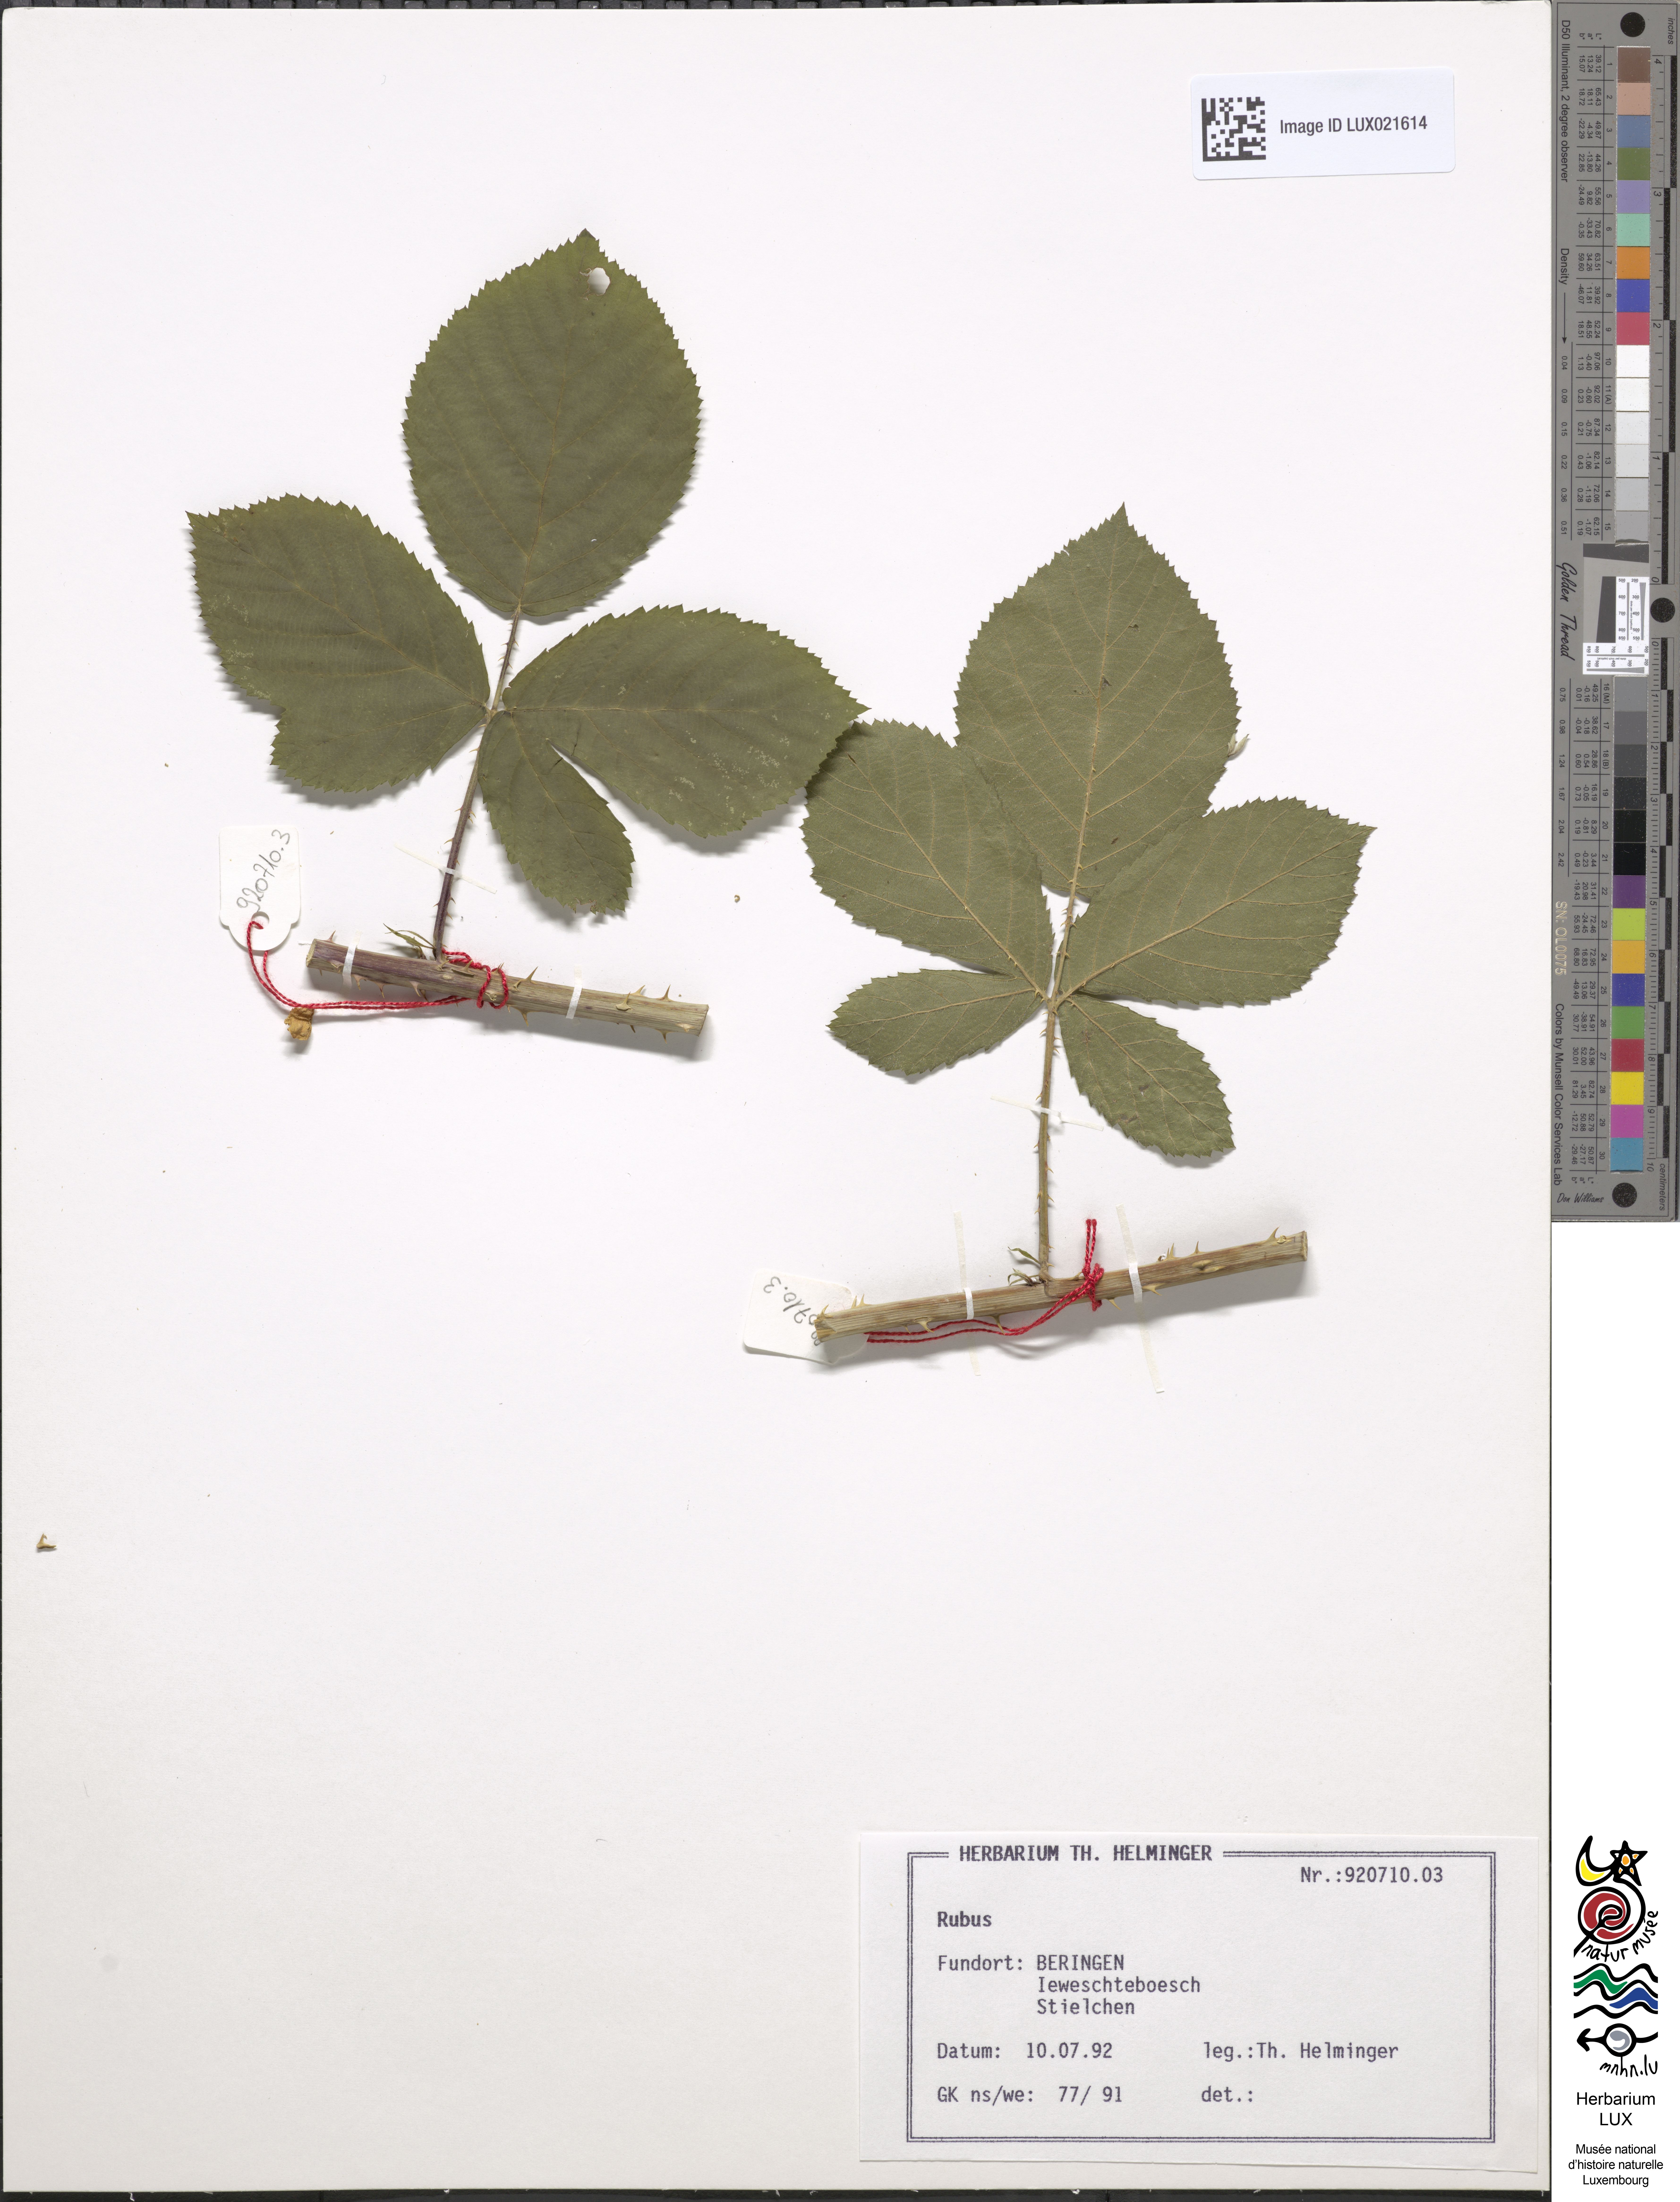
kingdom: Plantae
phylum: Tracheophyta
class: Magnoliopsida
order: Rosales
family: Rosaceae
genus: Rubus
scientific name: Rubus
